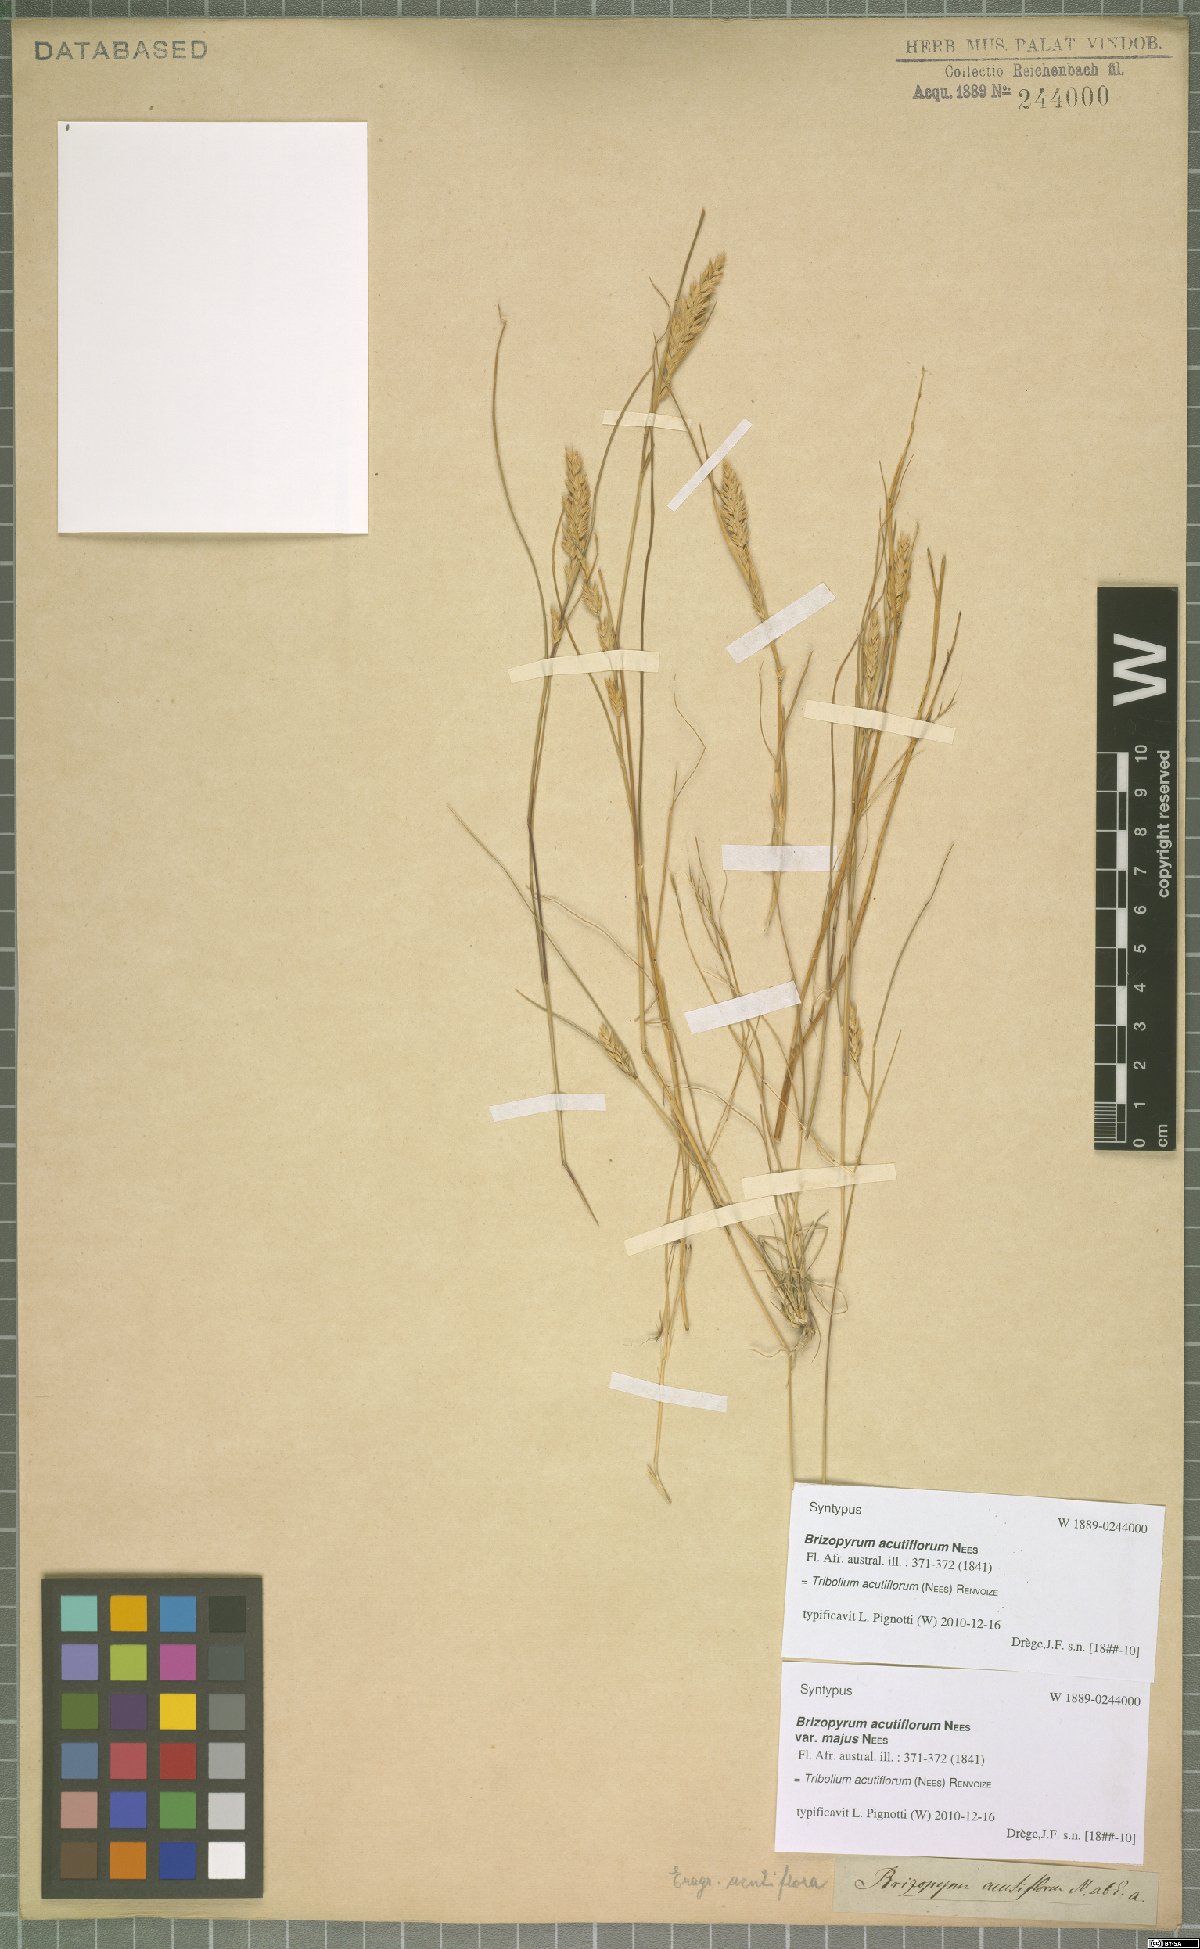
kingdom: Plantae
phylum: Tracheophyta
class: Liliopsida
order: Poales
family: Poaceae
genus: Tribolium
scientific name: Tribolium acutiflorum
